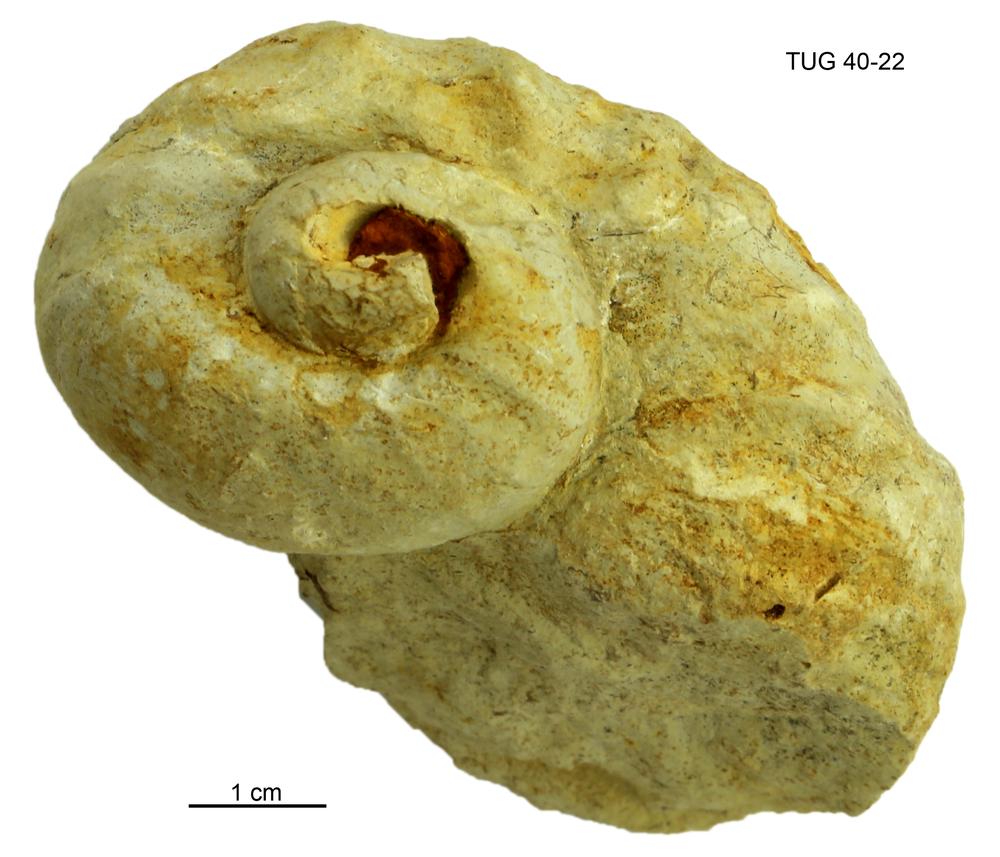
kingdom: Animalia
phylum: Mollusca
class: Gastropoda
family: Helicotomidae
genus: Boucotspira
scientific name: Boucotspira Euomphalus carinifer
